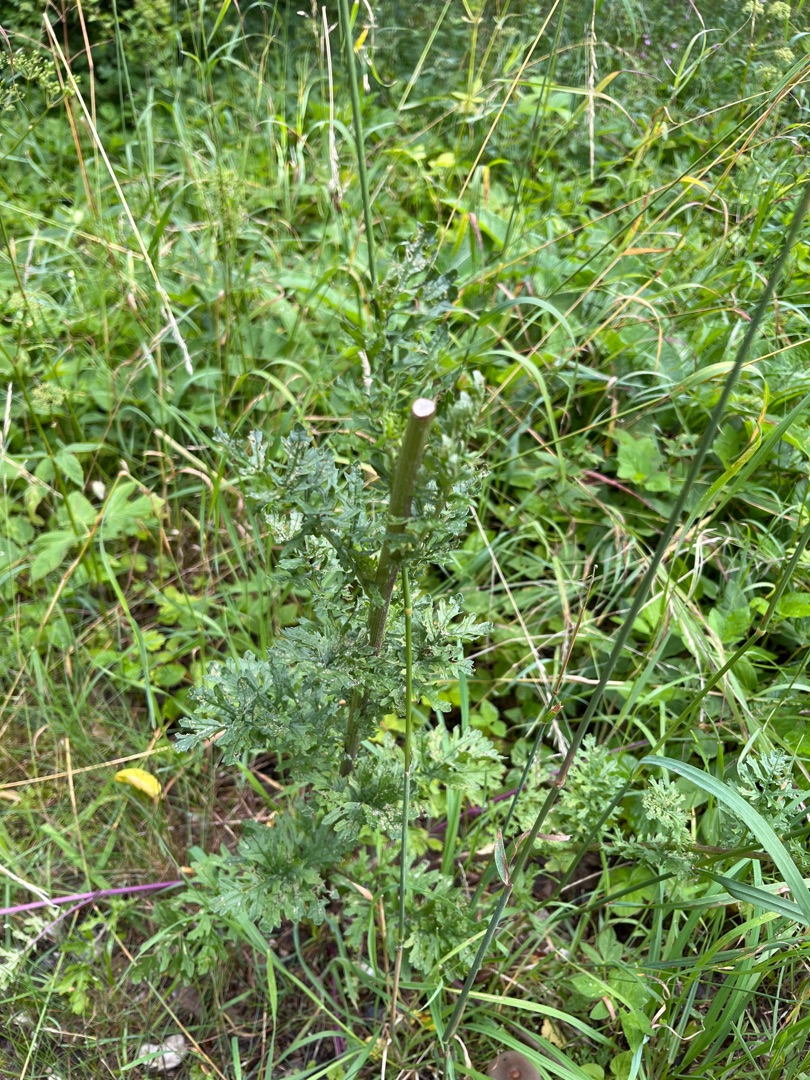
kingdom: Plantae
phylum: Tracheophyta
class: Magnoliopsida
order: Asterales
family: Asteraceae
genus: Jacobaea
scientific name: Jacobaea vulgaris
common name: Eng-brandbæger
